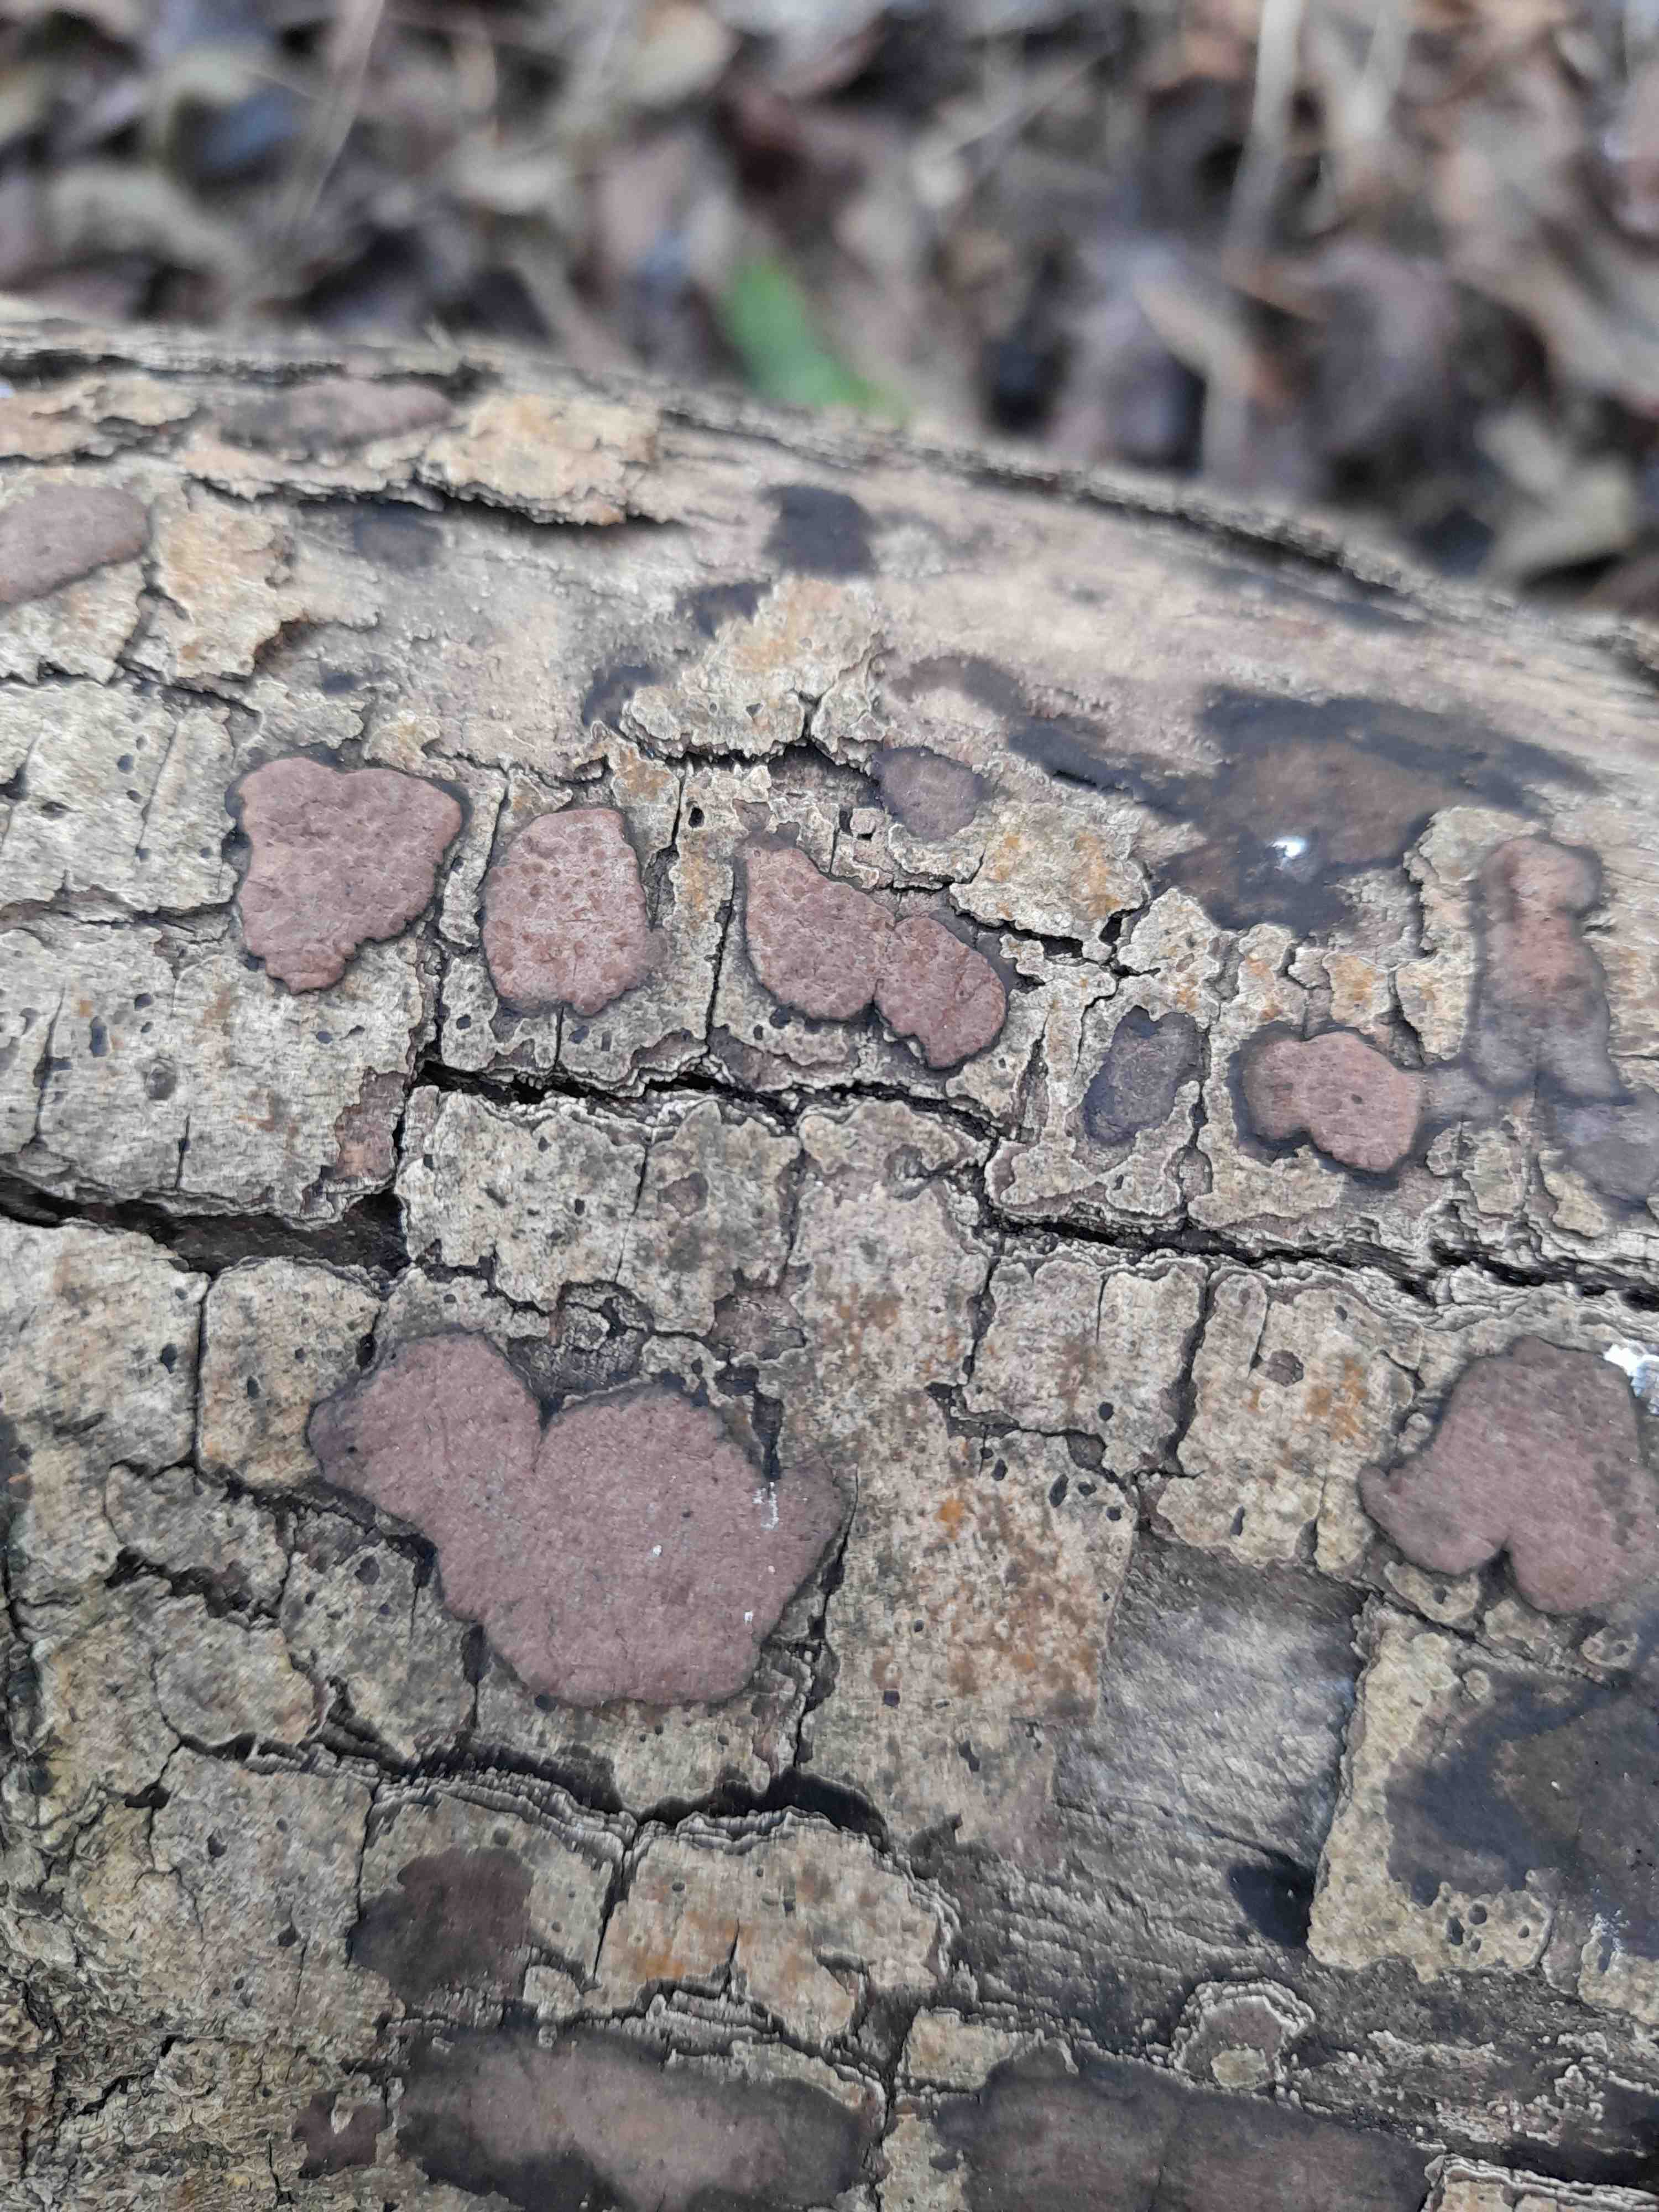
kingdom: Fungi
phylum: Ascomycota
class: Sordariomycetes
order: Xylariales
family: Hypoxylaceae
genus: Hypoxylon
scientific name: Hypoxylon petriniae
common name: nedsænket kulbær
